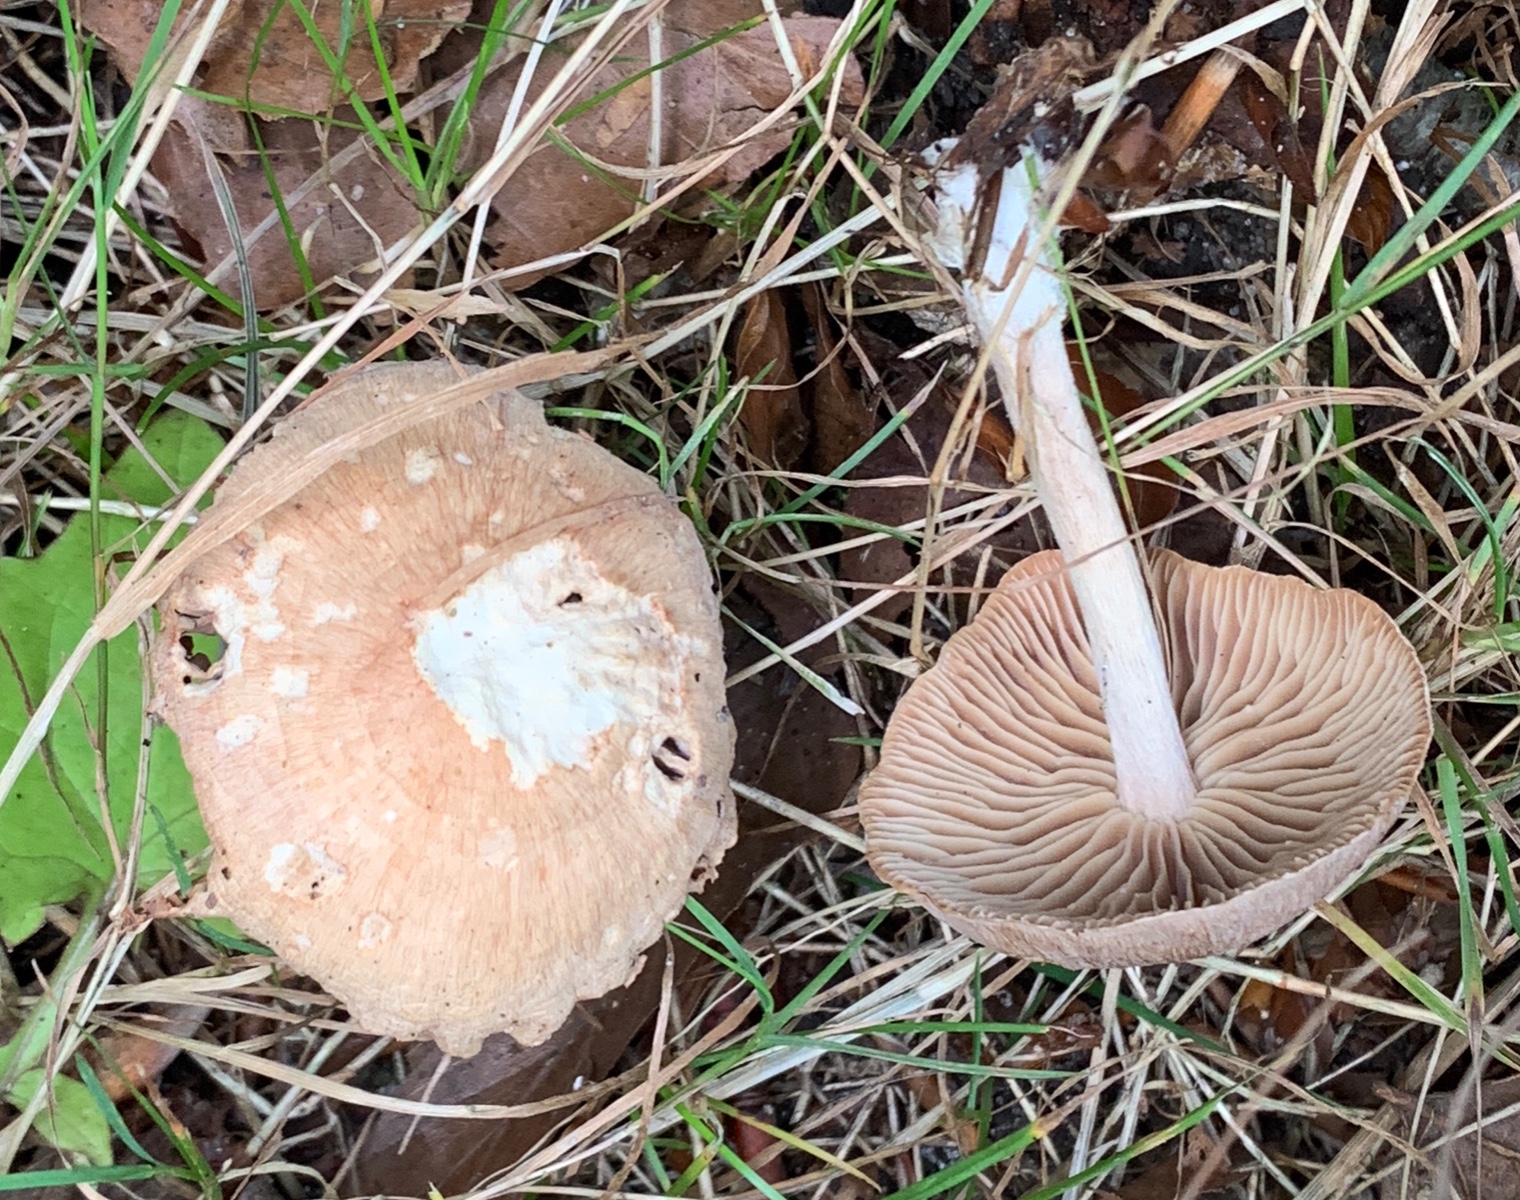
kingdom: Fungi
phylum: Basidiomycota
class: Agaricomycetes
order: Agaricales
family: Omphalotaceae
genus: Collybiopsis
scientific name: Collybiopsis peronata
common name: bestøvlet fladhat
